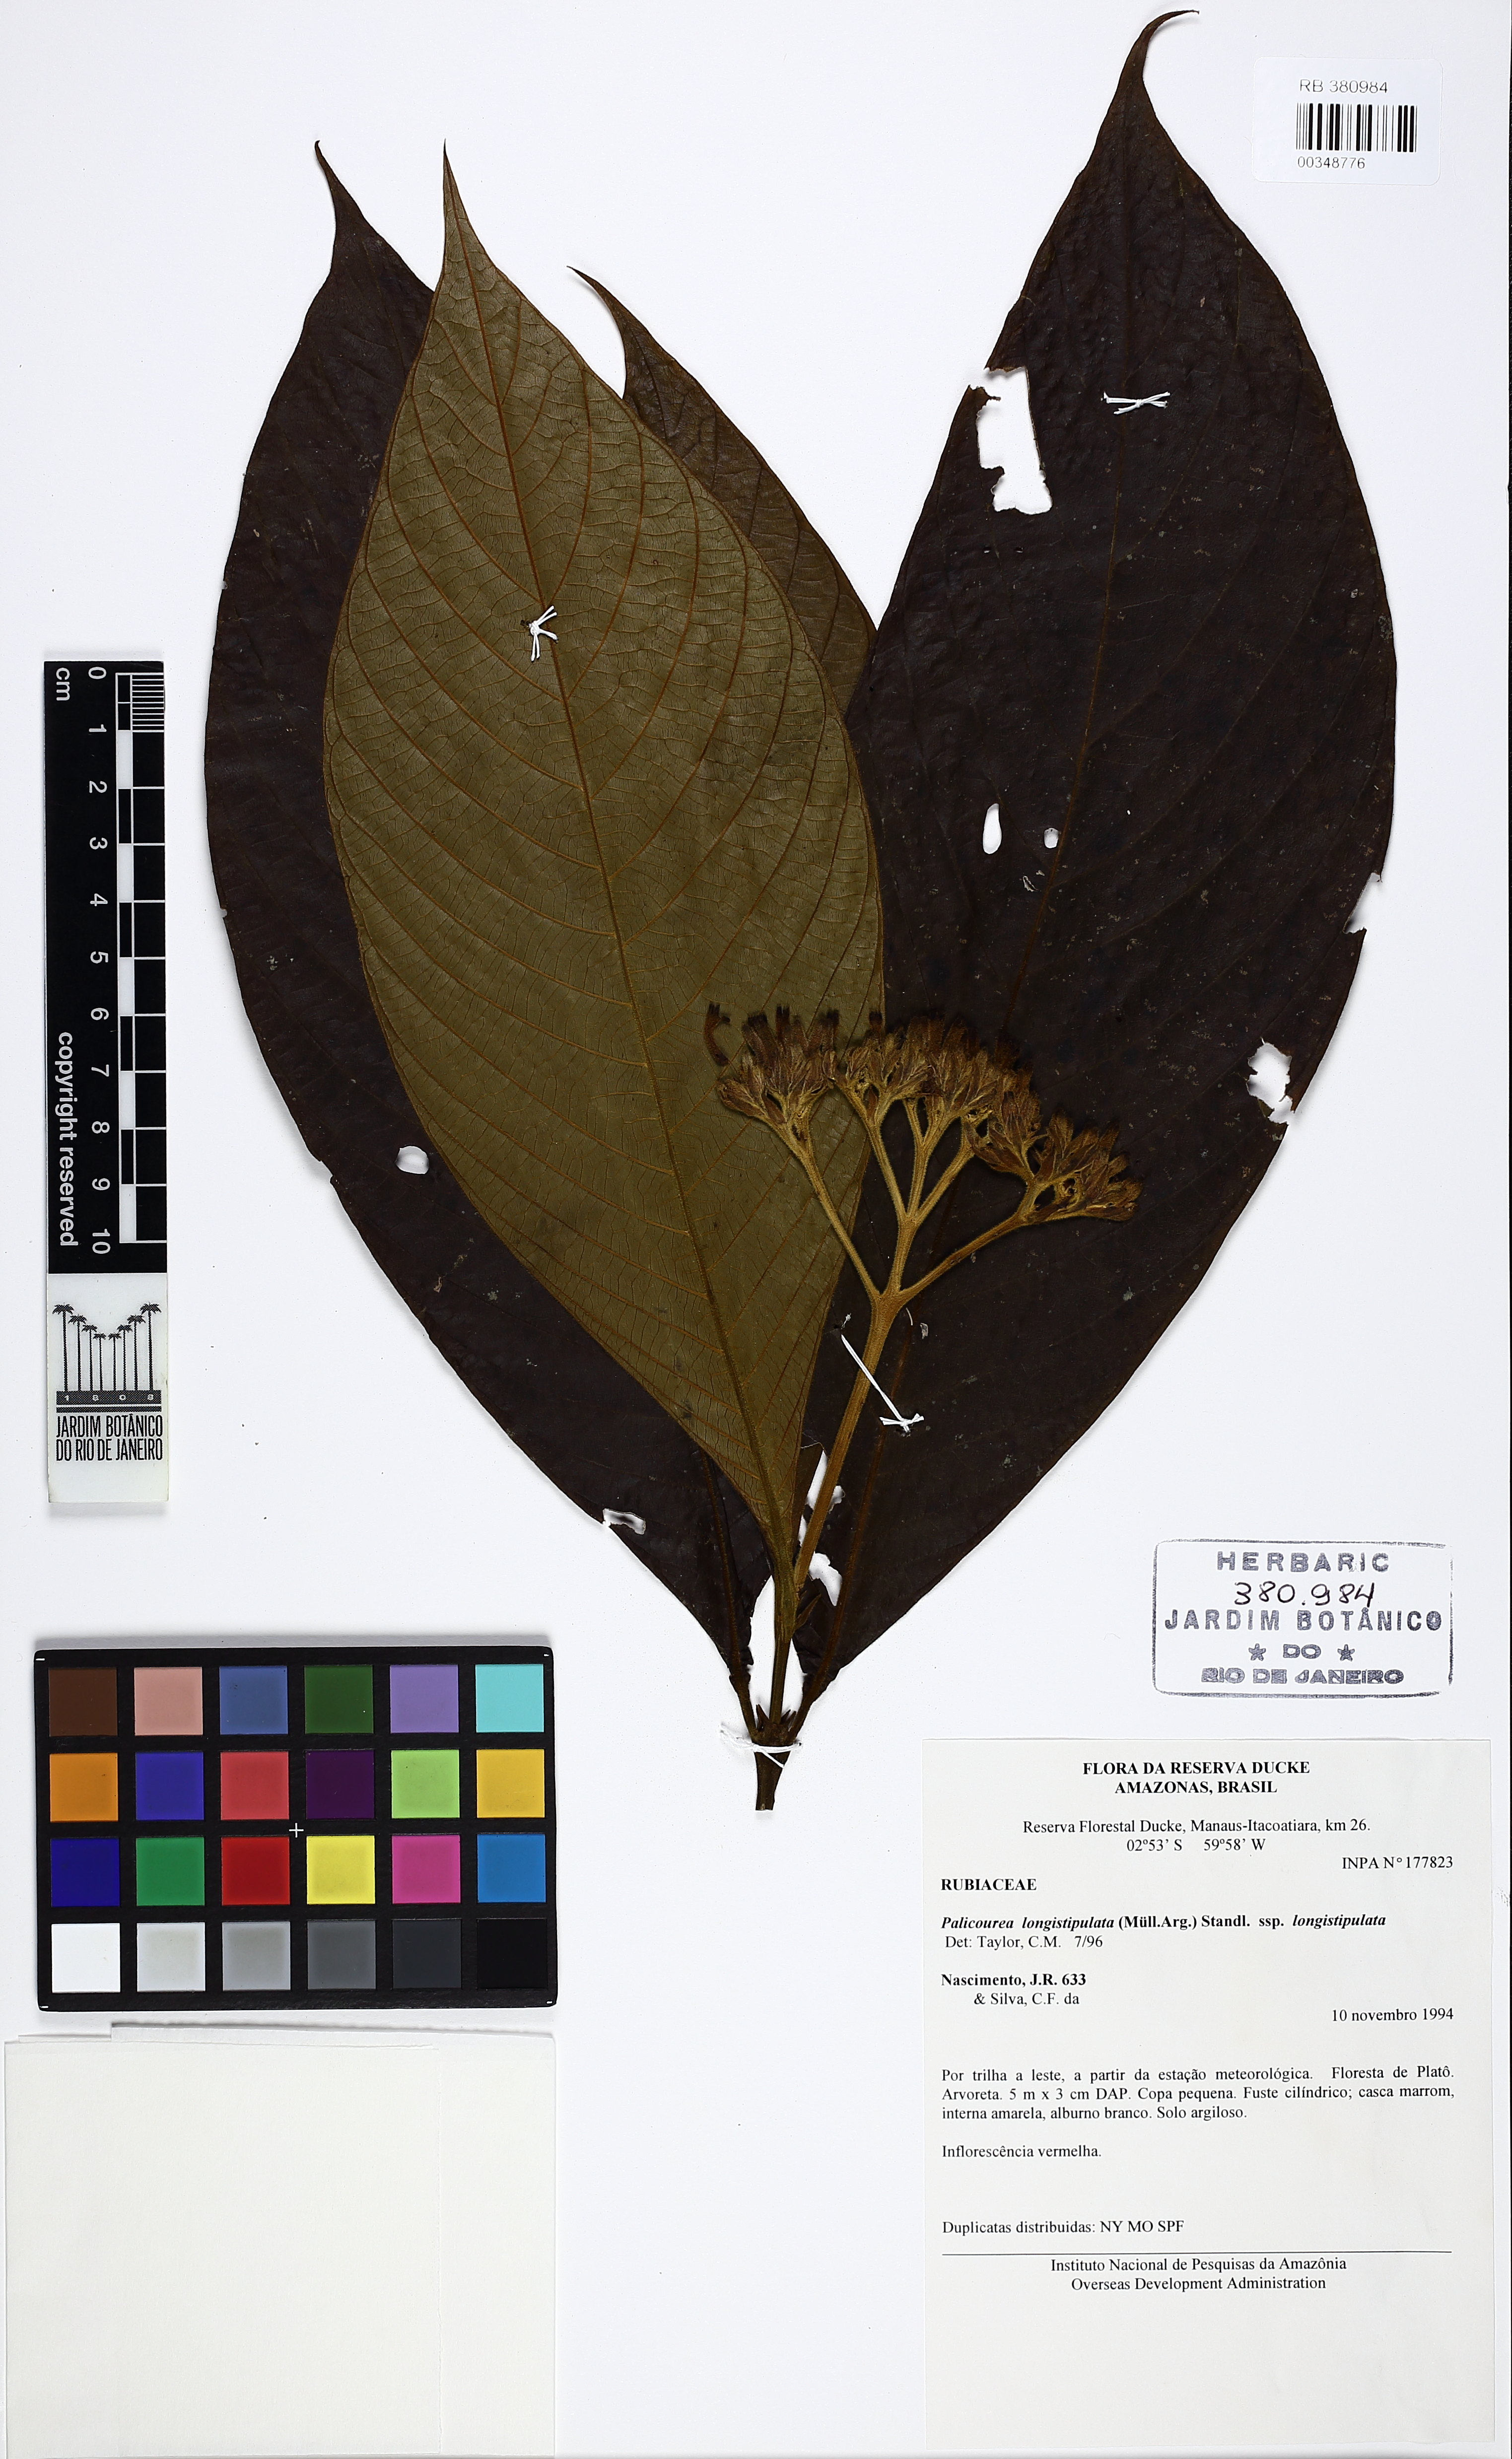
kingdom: Plantae
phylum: Tracheophyta
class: Magnoliopsida
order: Gentianales
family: Rubiaceae
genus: Palicourea
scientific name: Palicourea longistipulata
